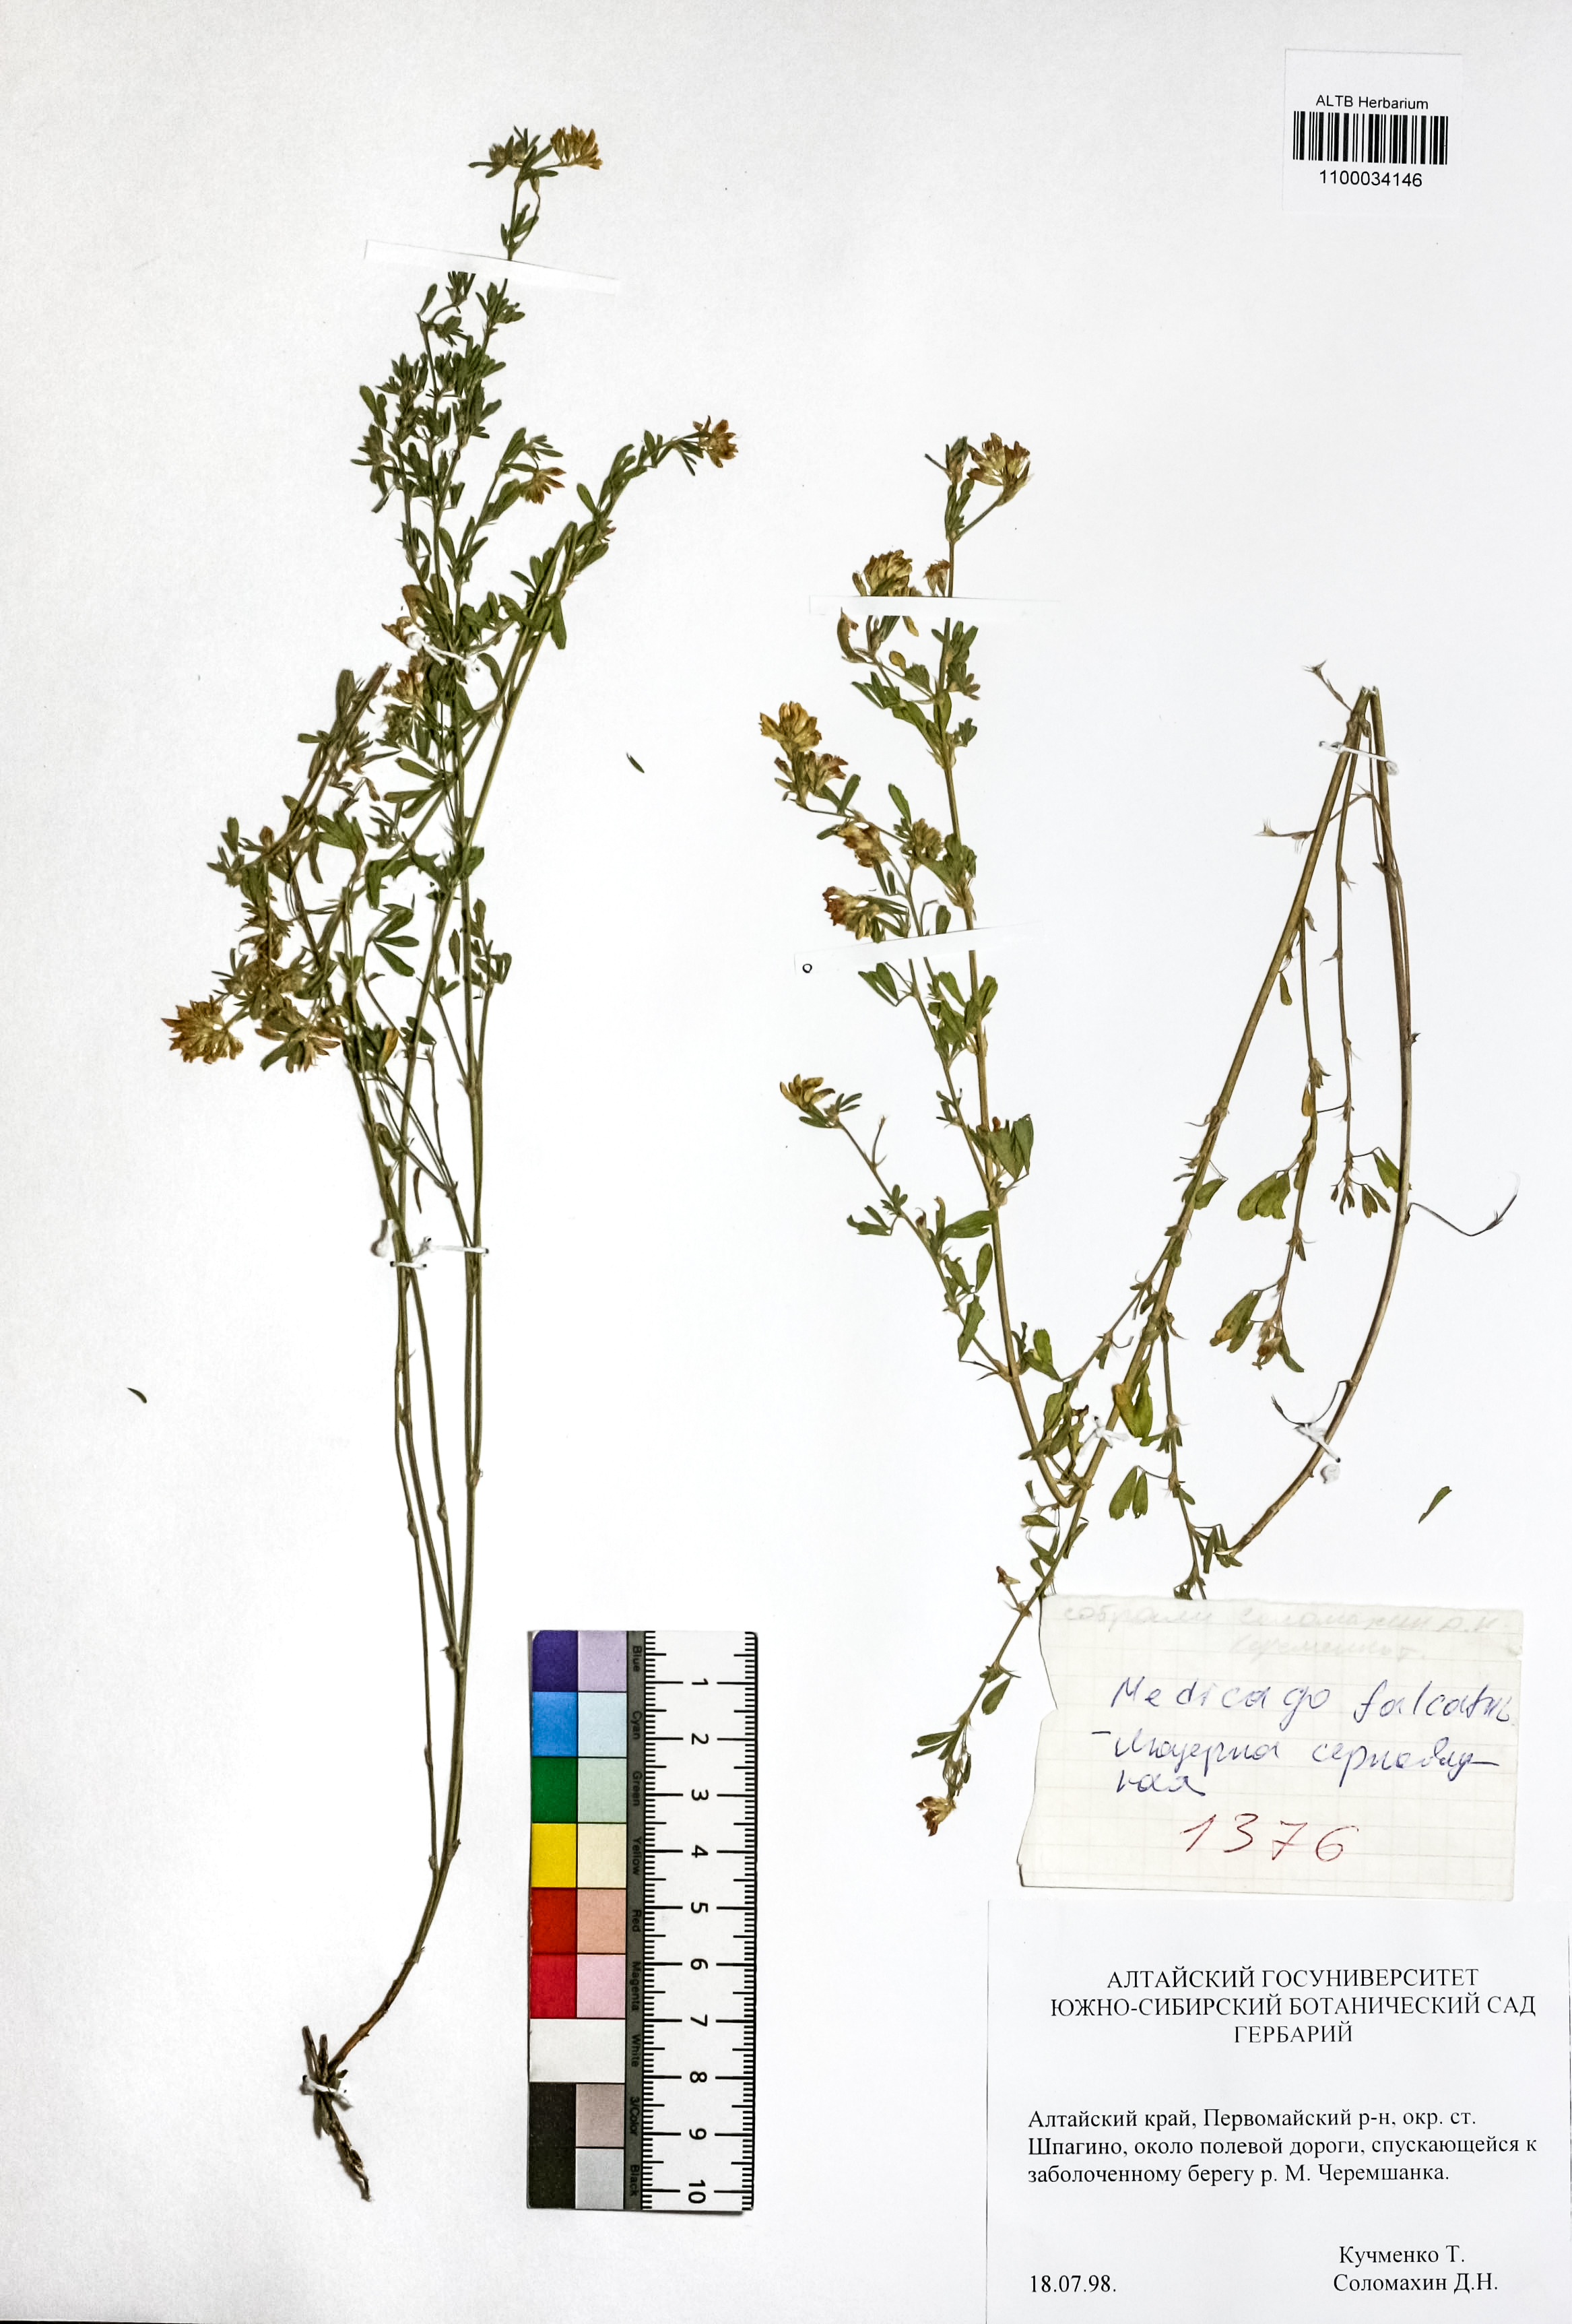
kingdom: Plantae
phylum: Tracheophyta
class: Magnoliopsida
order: Fabales
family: Fabaceae
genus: Medicago
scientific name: Medicago falcata
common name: Sickle medick
